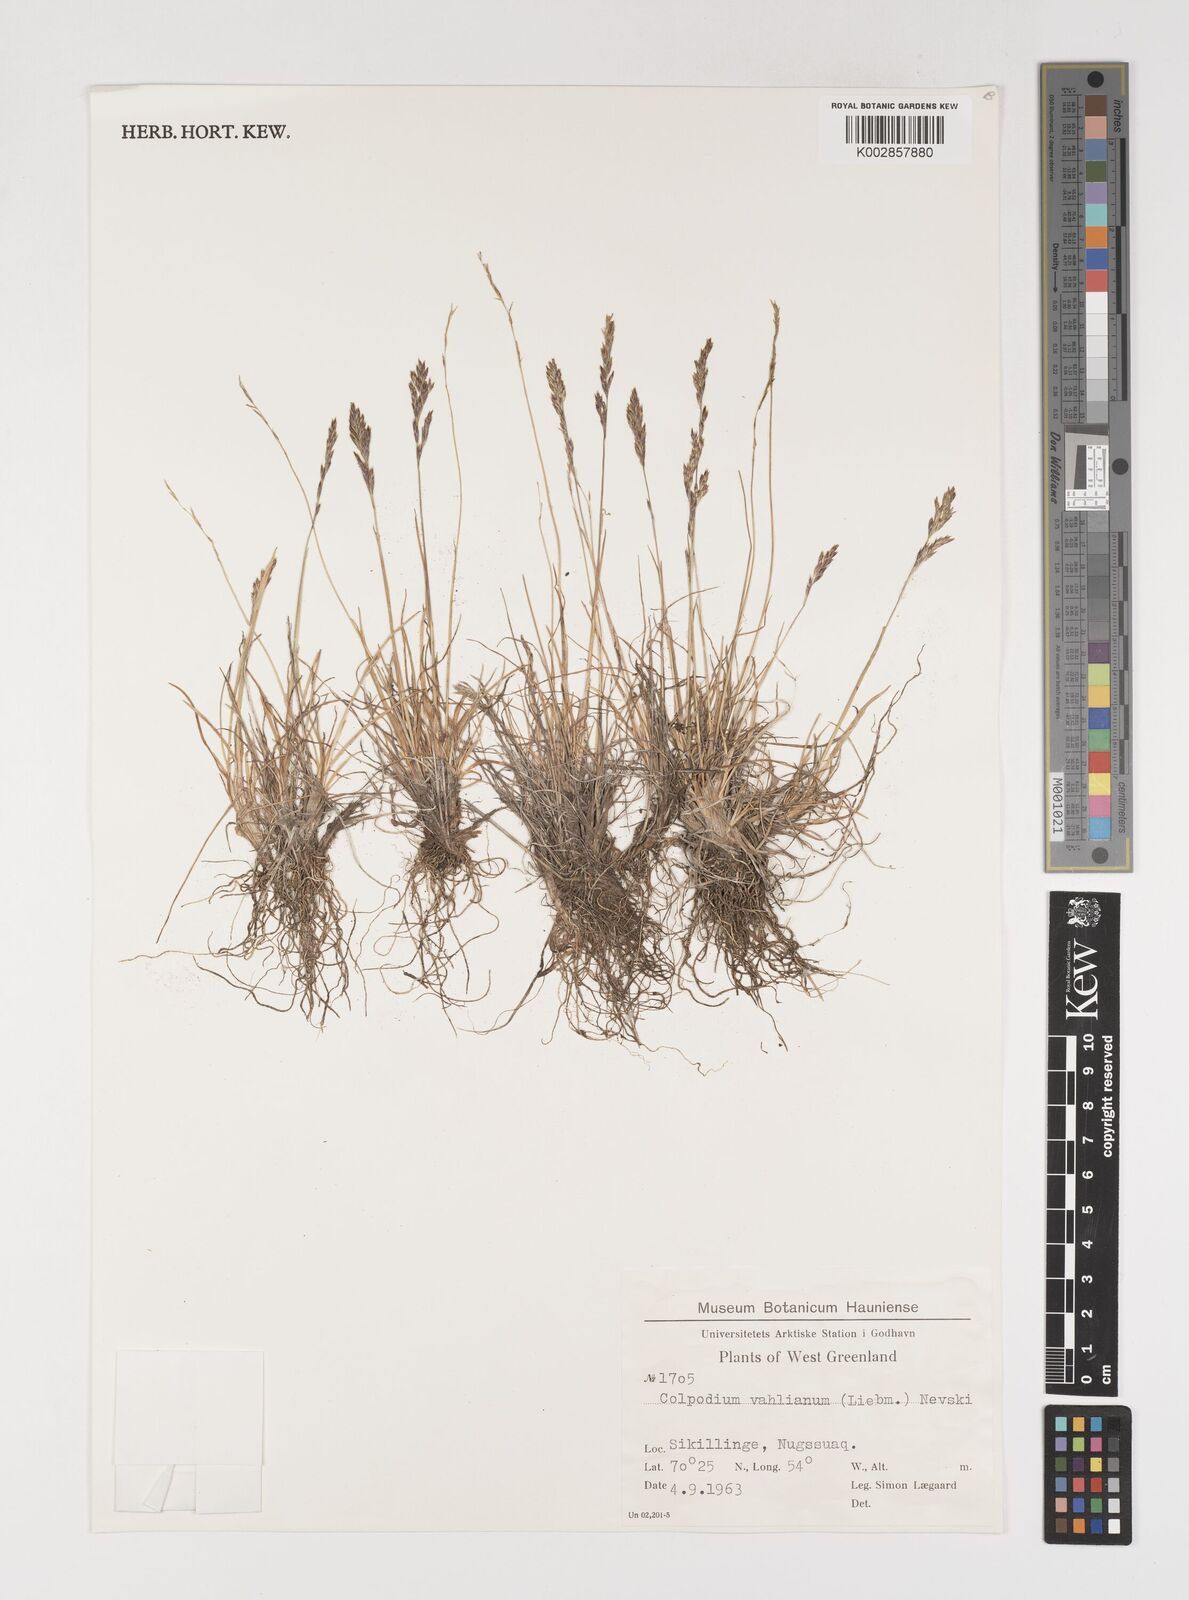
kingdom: Plantae
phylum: Tracheophyta
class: Liliopsida
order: Poales
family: Poaceae
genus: Puccinellia
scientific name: Puccinellia vahliana
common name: Vahl's alkaligrass
